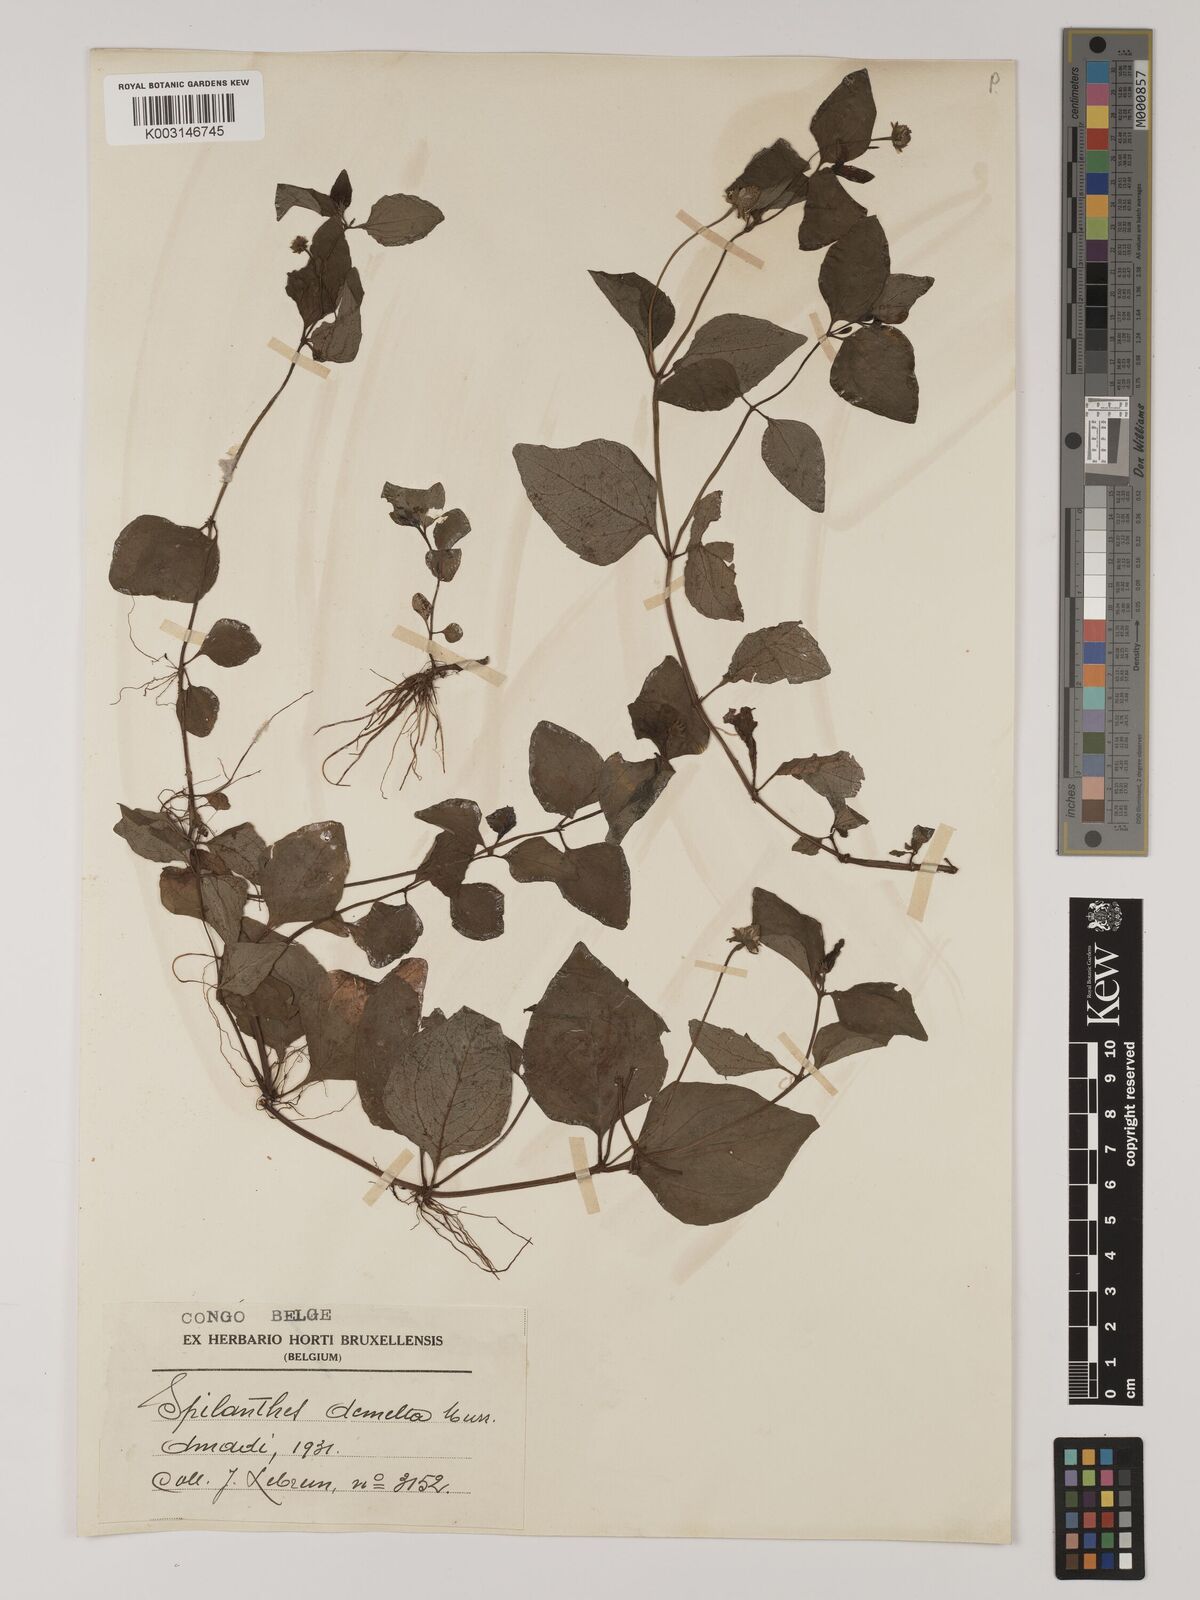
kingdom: Plantae
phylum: Tracheophyta
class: Magnoliopsida
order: Asterales
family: Asteraceae
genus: Blainvillea
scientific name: Blainvillea acmella
